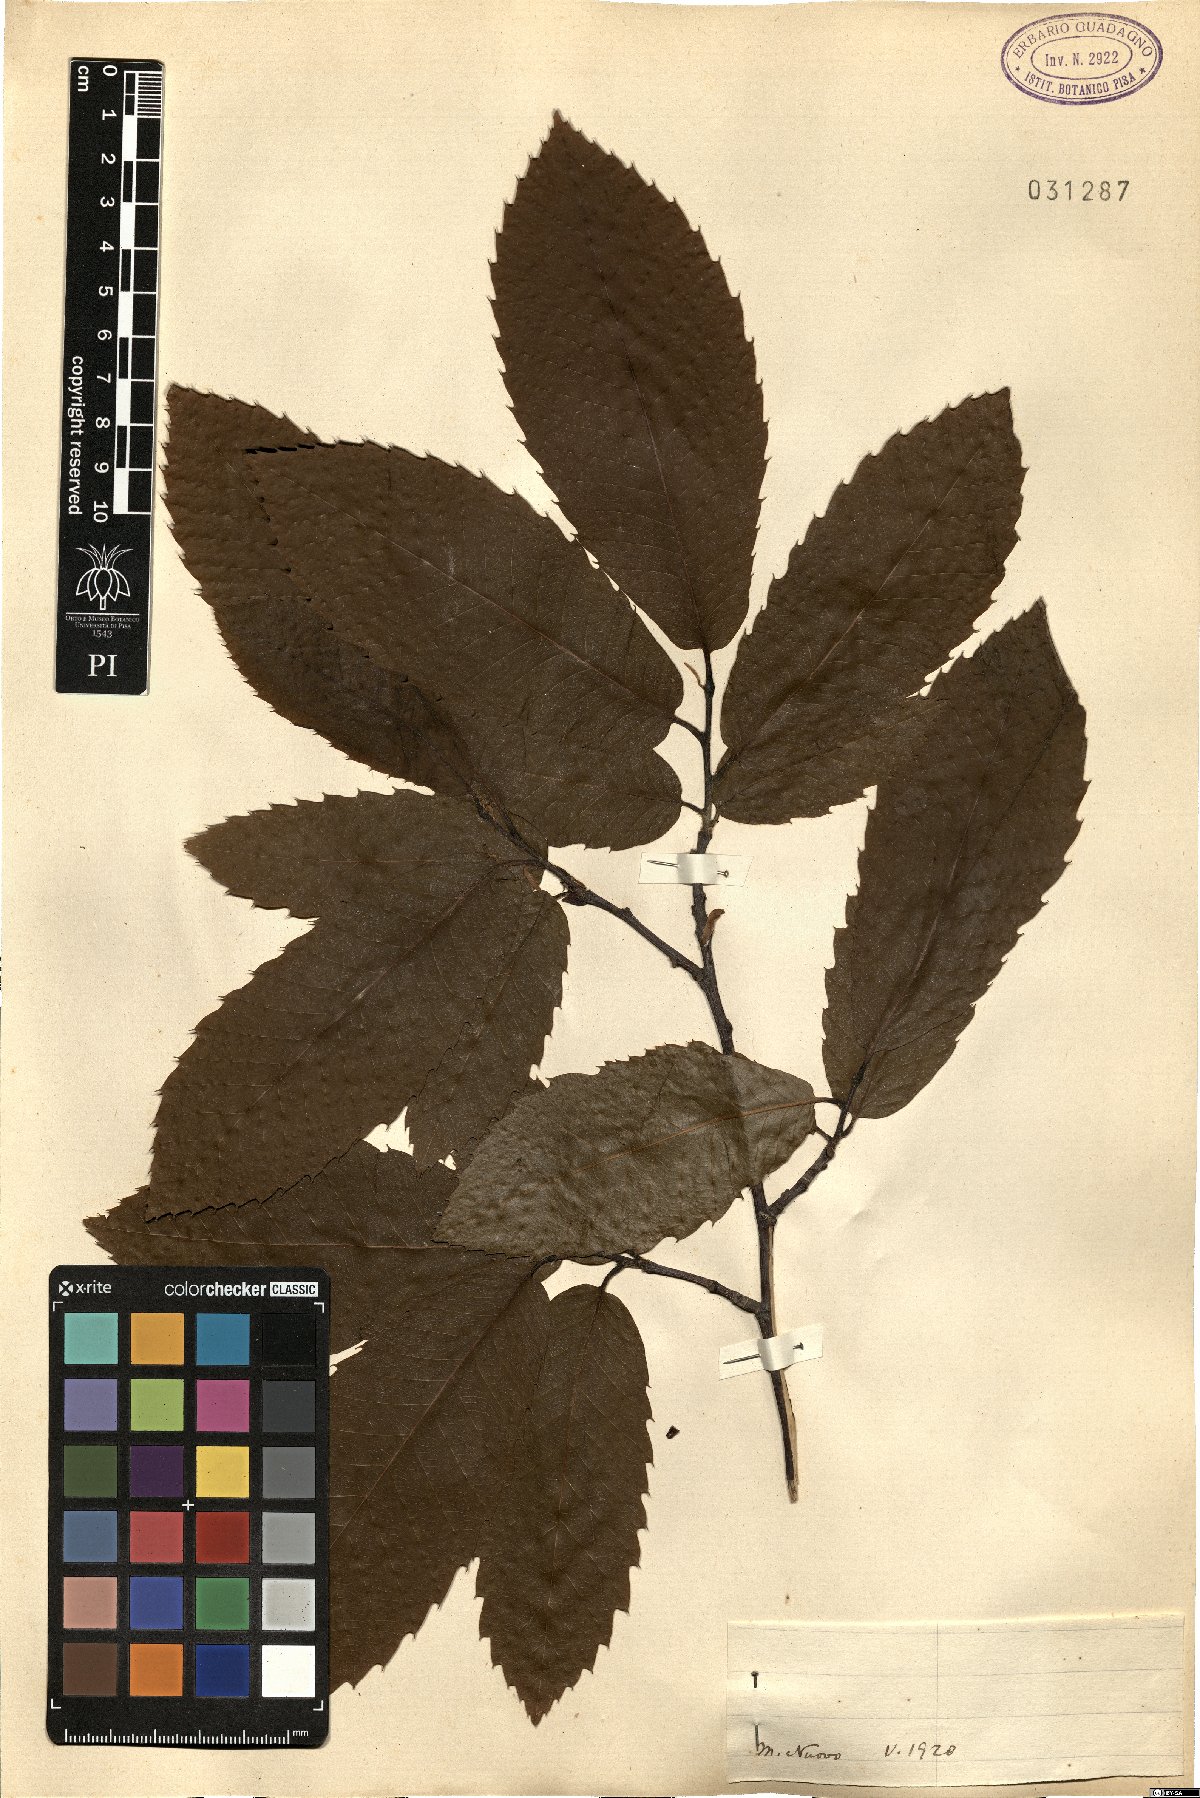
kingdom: Plantae
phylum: Tracheophyta
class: Magnoliopsida
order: Fagales
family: Fagaceae
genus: Castanea
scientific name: Castanea sativa
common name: Sweet chestnut
